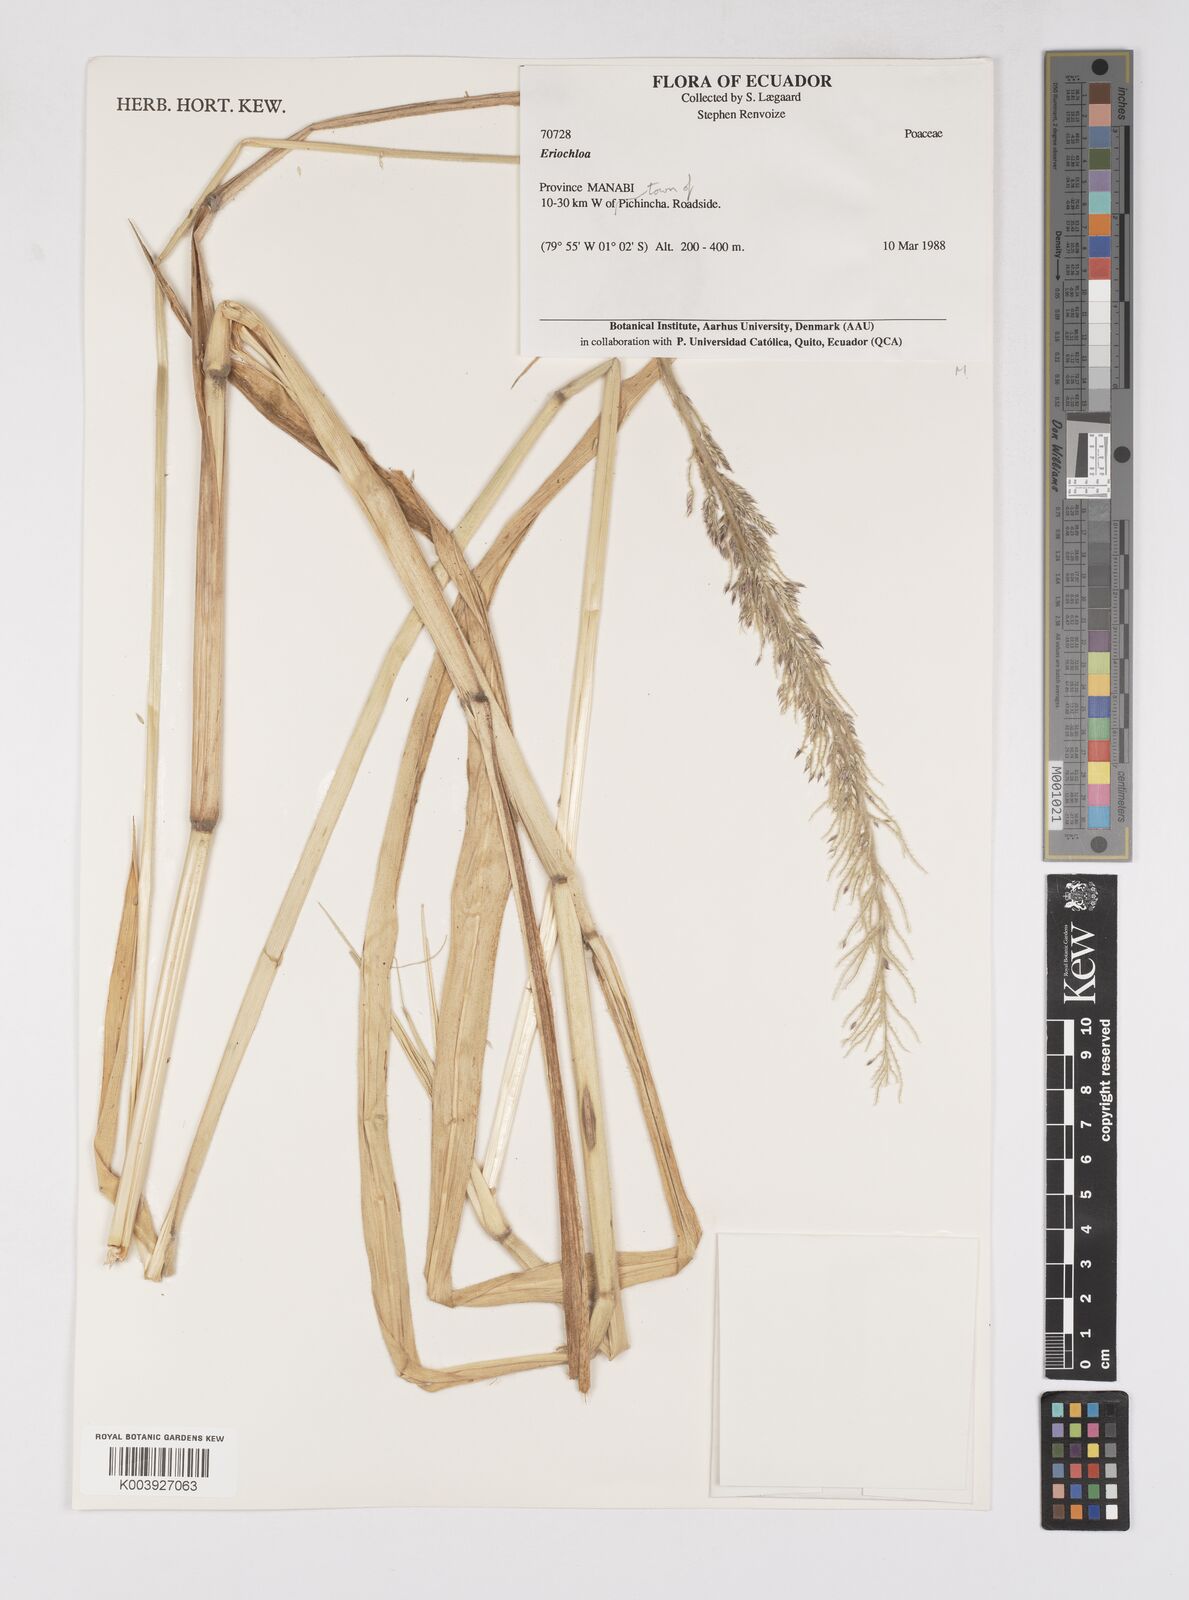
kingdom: Plantae
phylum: Tracheophyta
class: Liliopsida
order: Poales
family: Poaceae
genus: Eriochloa
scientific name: Eriochloa stevensii
